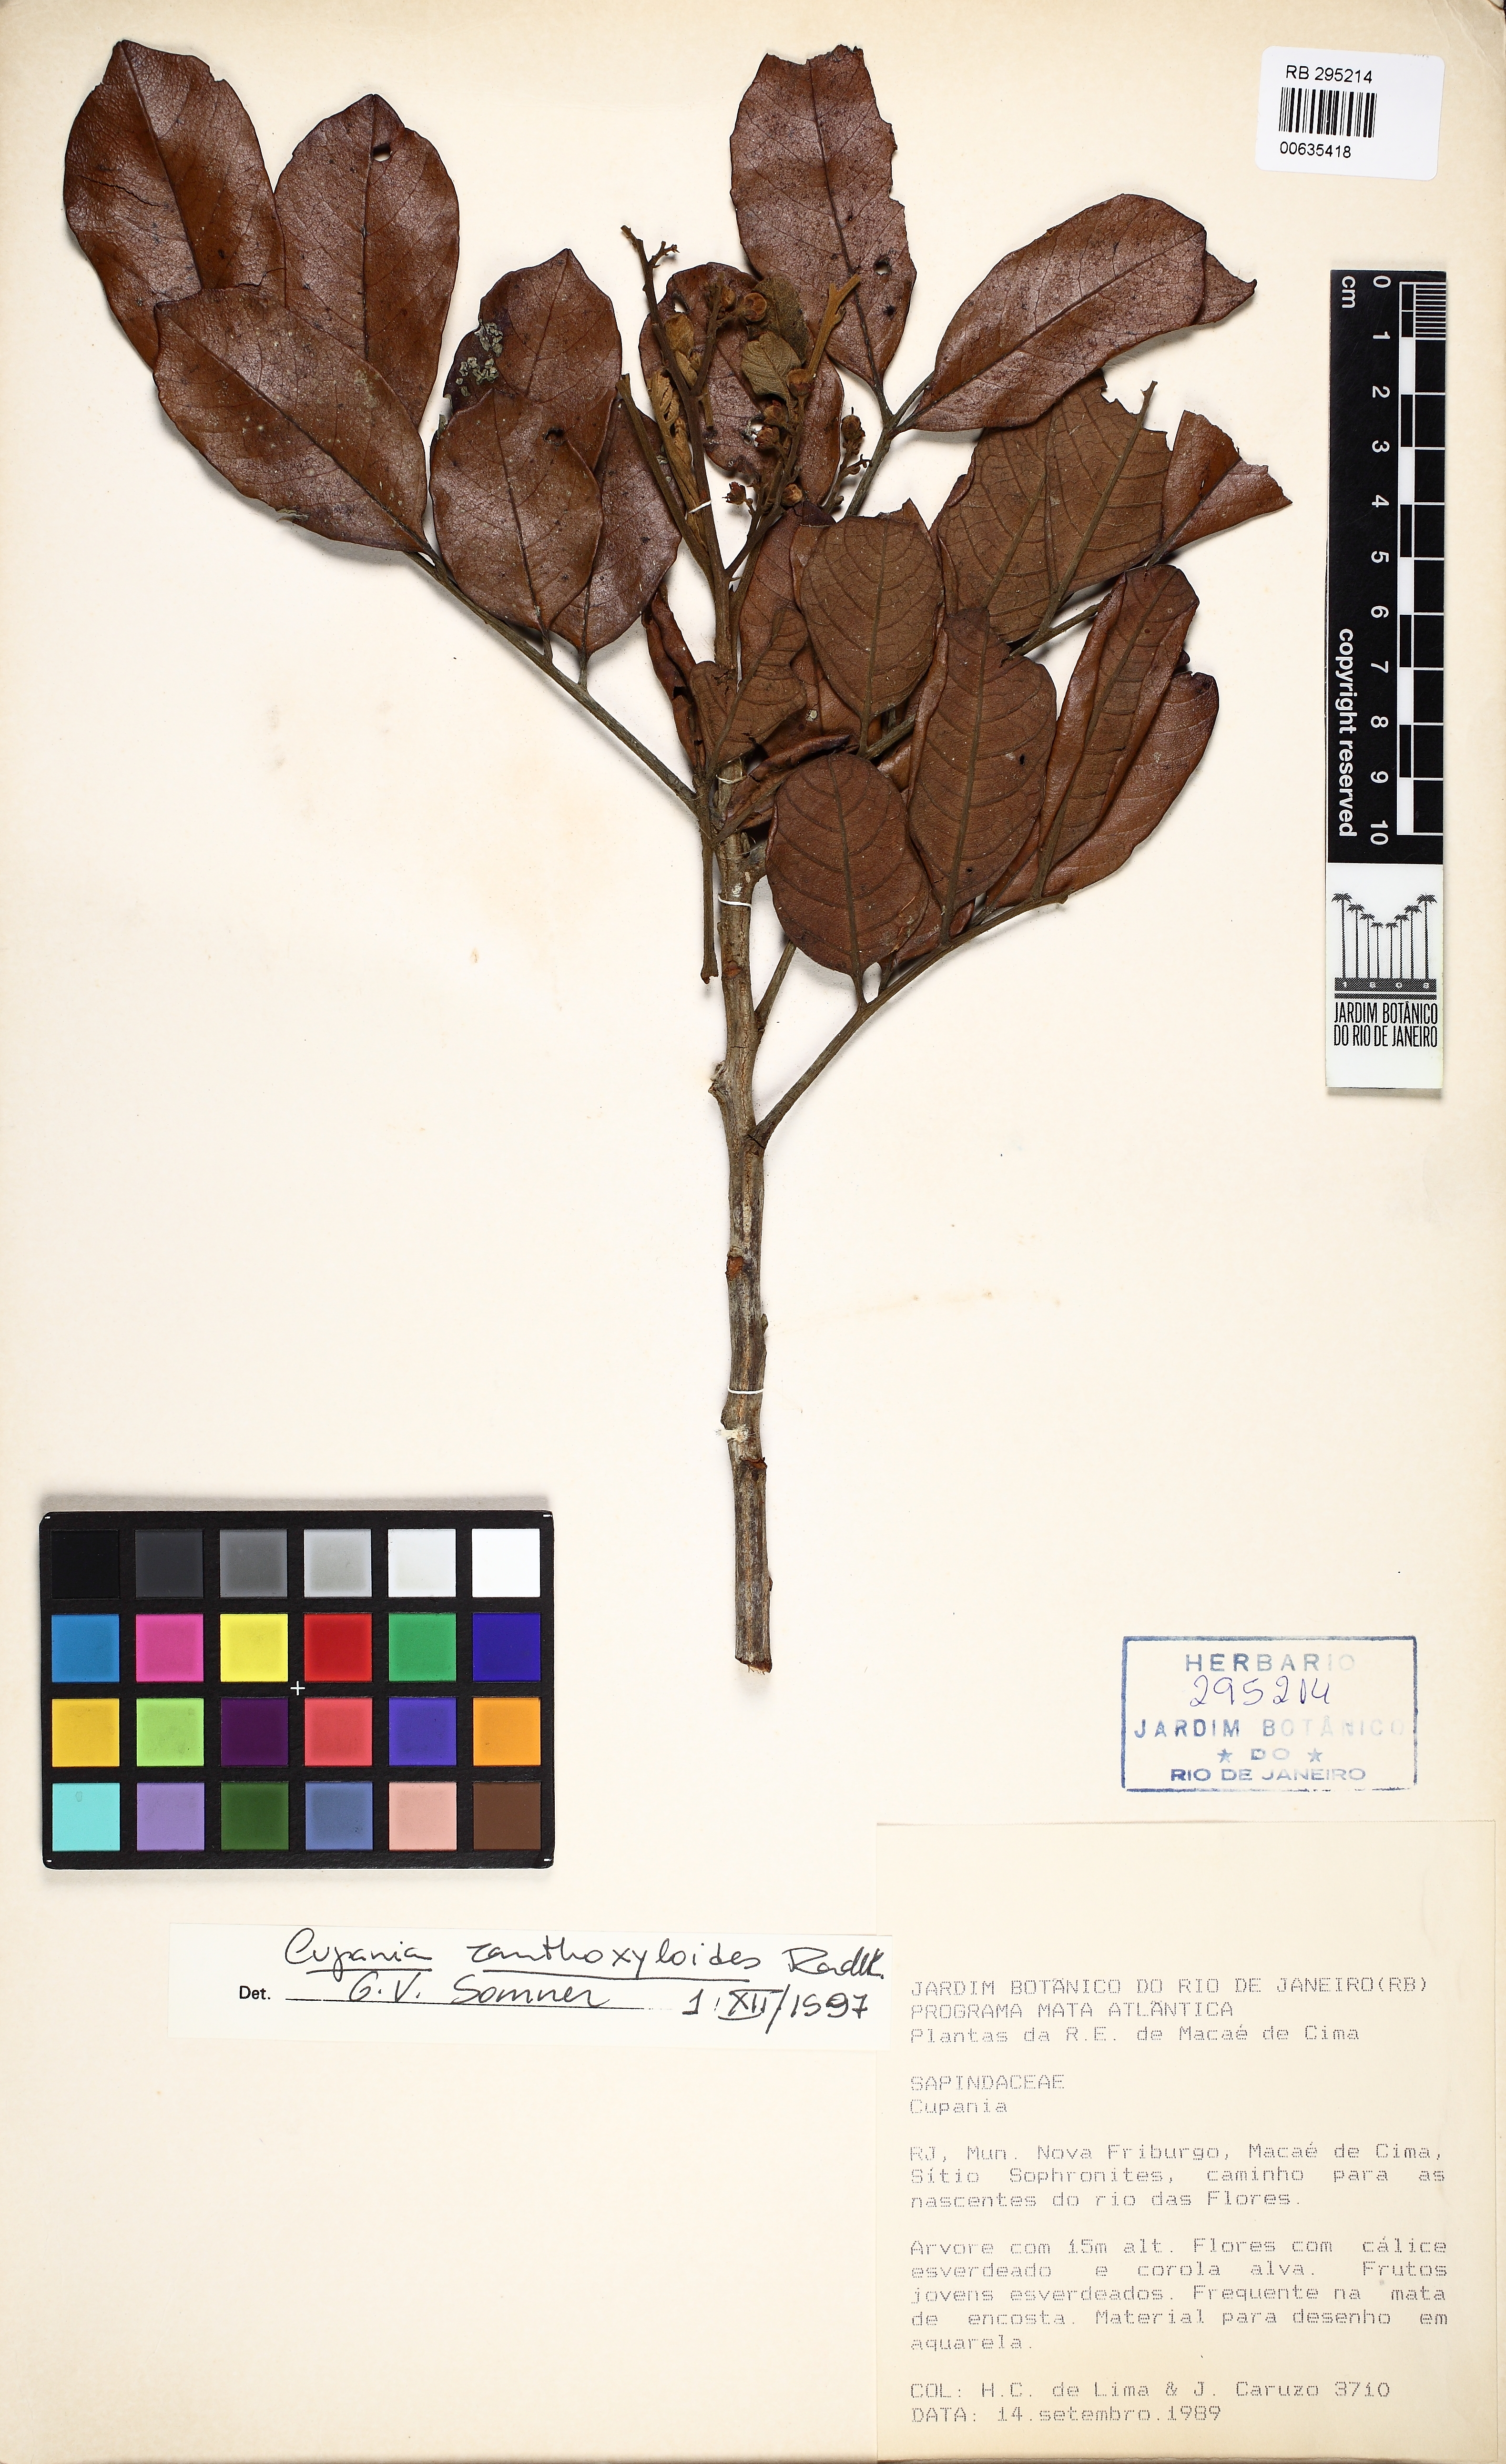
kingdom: Plantae
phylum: Tracheophyta
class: Magnoliopsida
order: Sapindales
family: Sapindaceae
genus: Cupania
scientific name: Cupania zanthoxyloides
